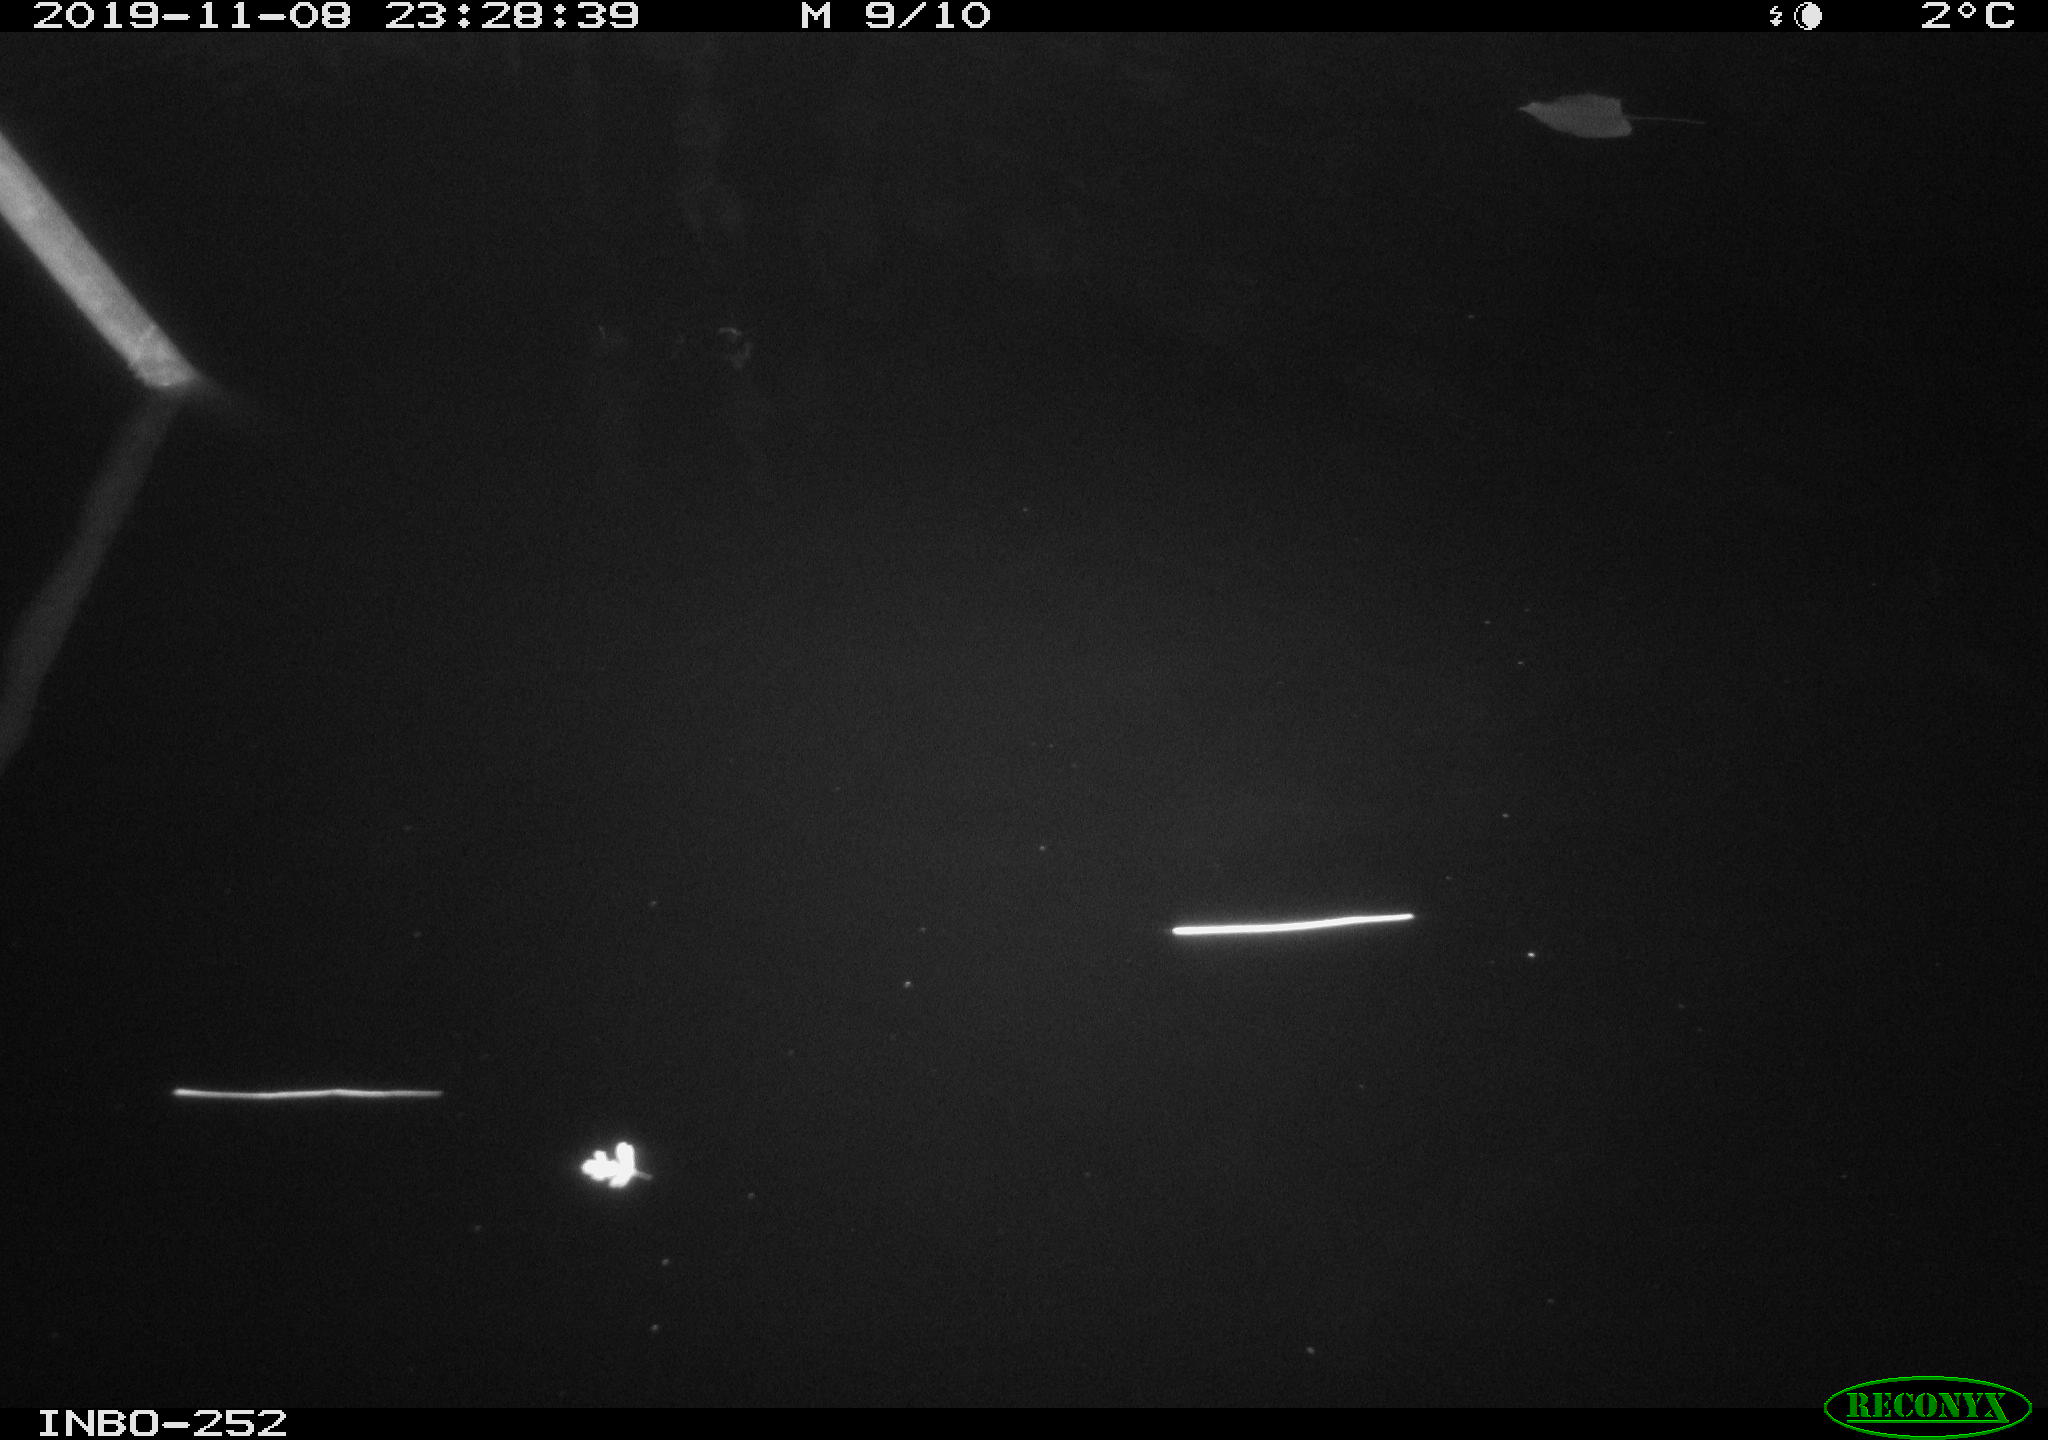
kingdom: Animalia
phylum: Chordata
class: Aves
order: Anseriformes
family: Anatidae
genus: Anas
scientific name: Anas platyrhynchos
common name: Mallard
